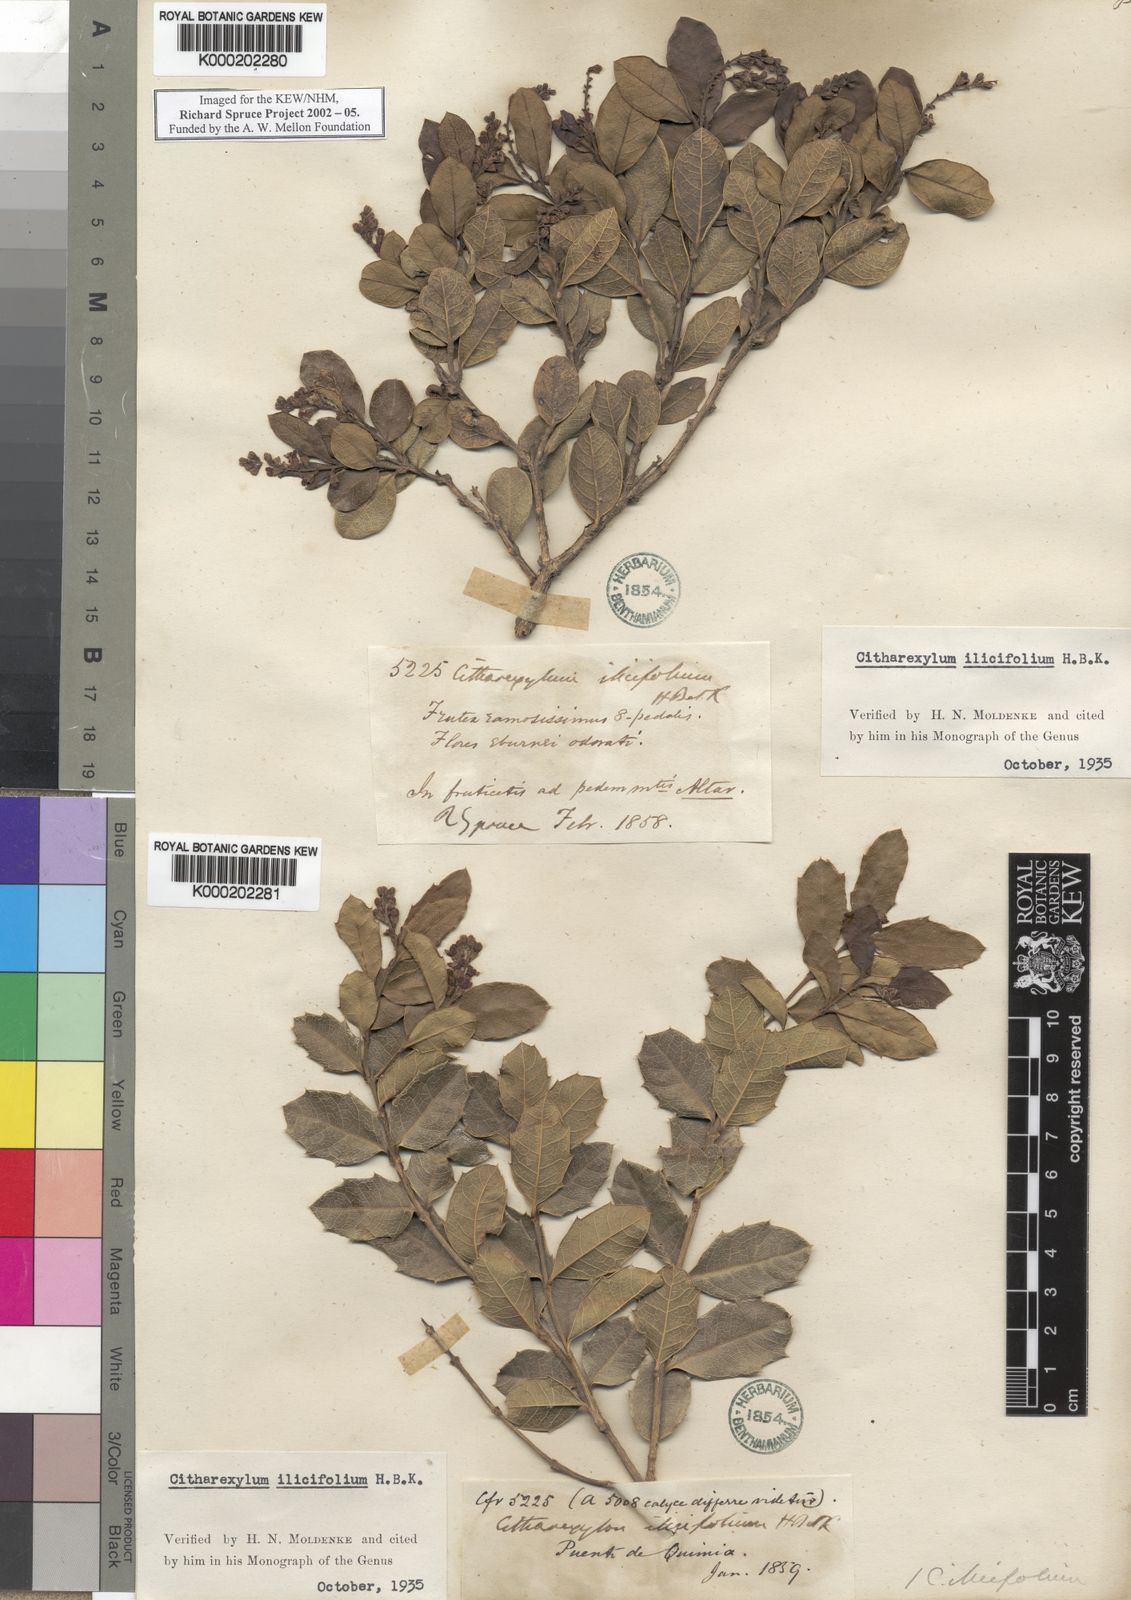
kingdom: Plantae
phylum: Tracheophyta
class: Magnoliopsida
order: Lamiales
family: Verbenaceae
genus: Citharexylum
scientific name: Citharexylum ilicifolium
